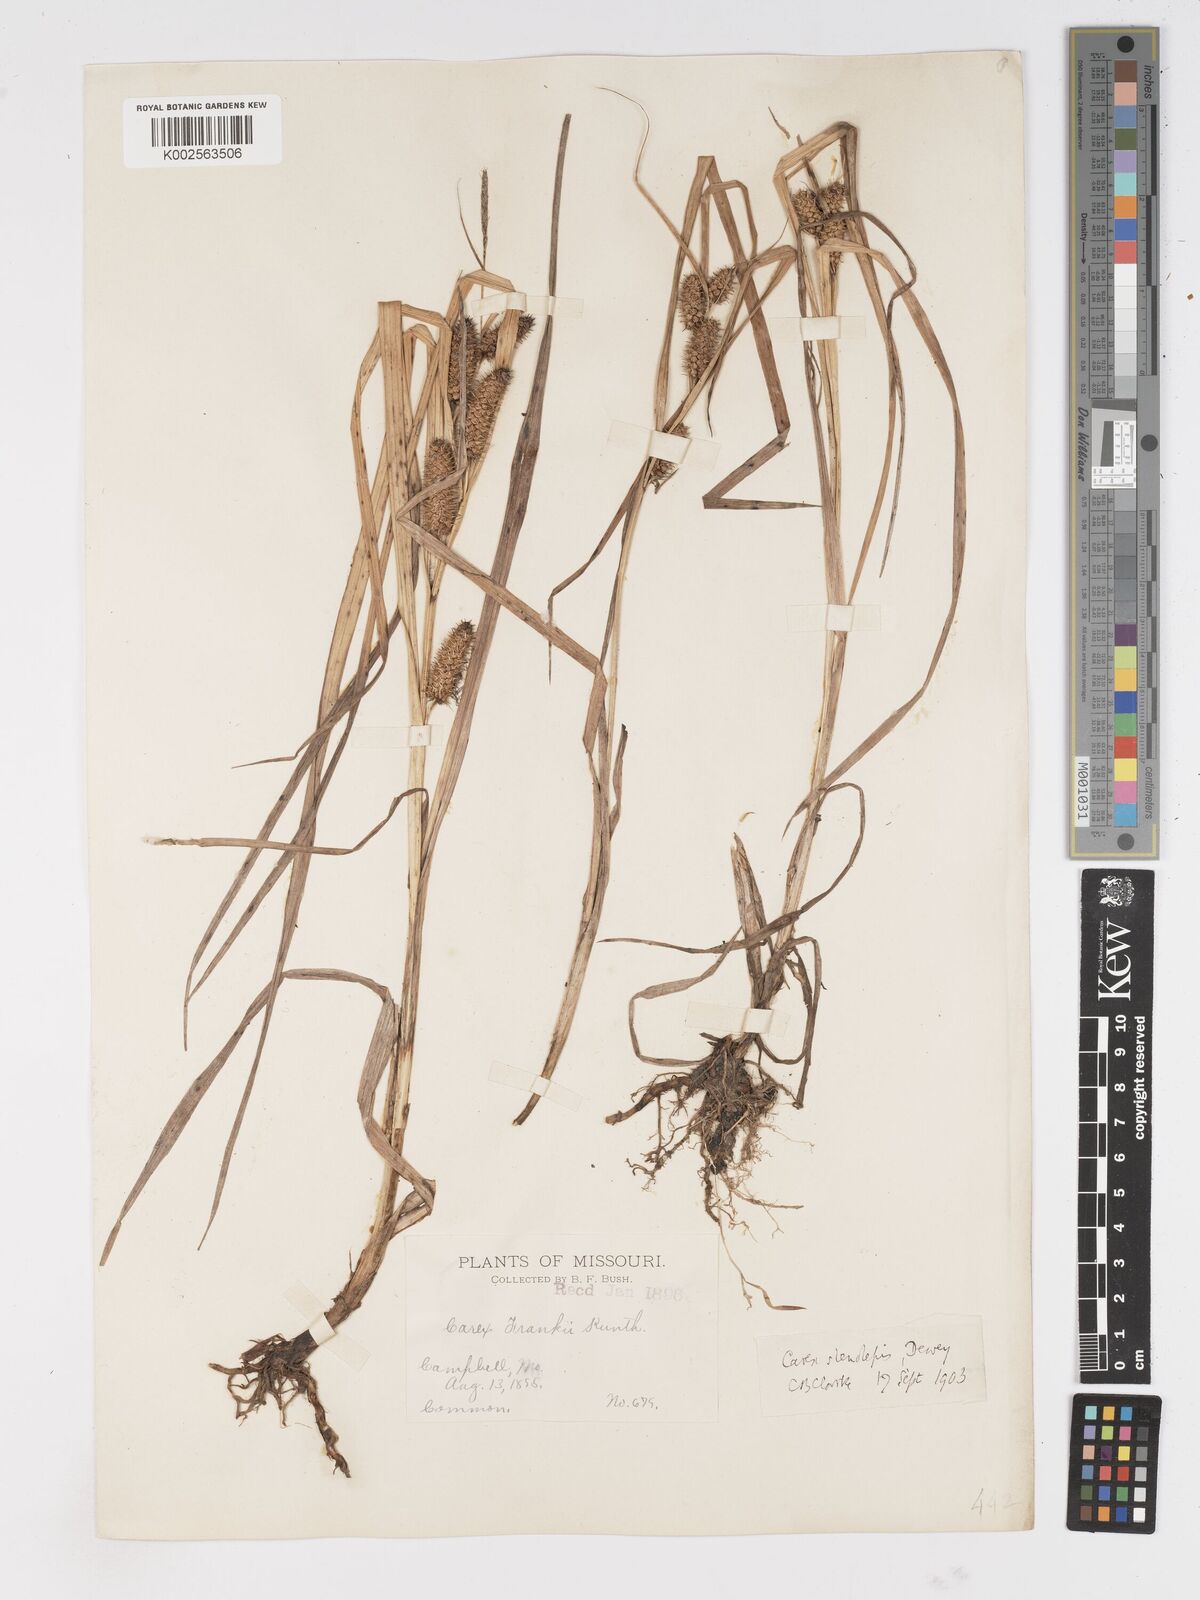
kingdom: Plantae
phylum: Tracheophyta
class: Liliopsida
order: Poales
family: Cyperaceae
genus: Carex
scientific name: Carex frankii
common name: Frank's sedge
